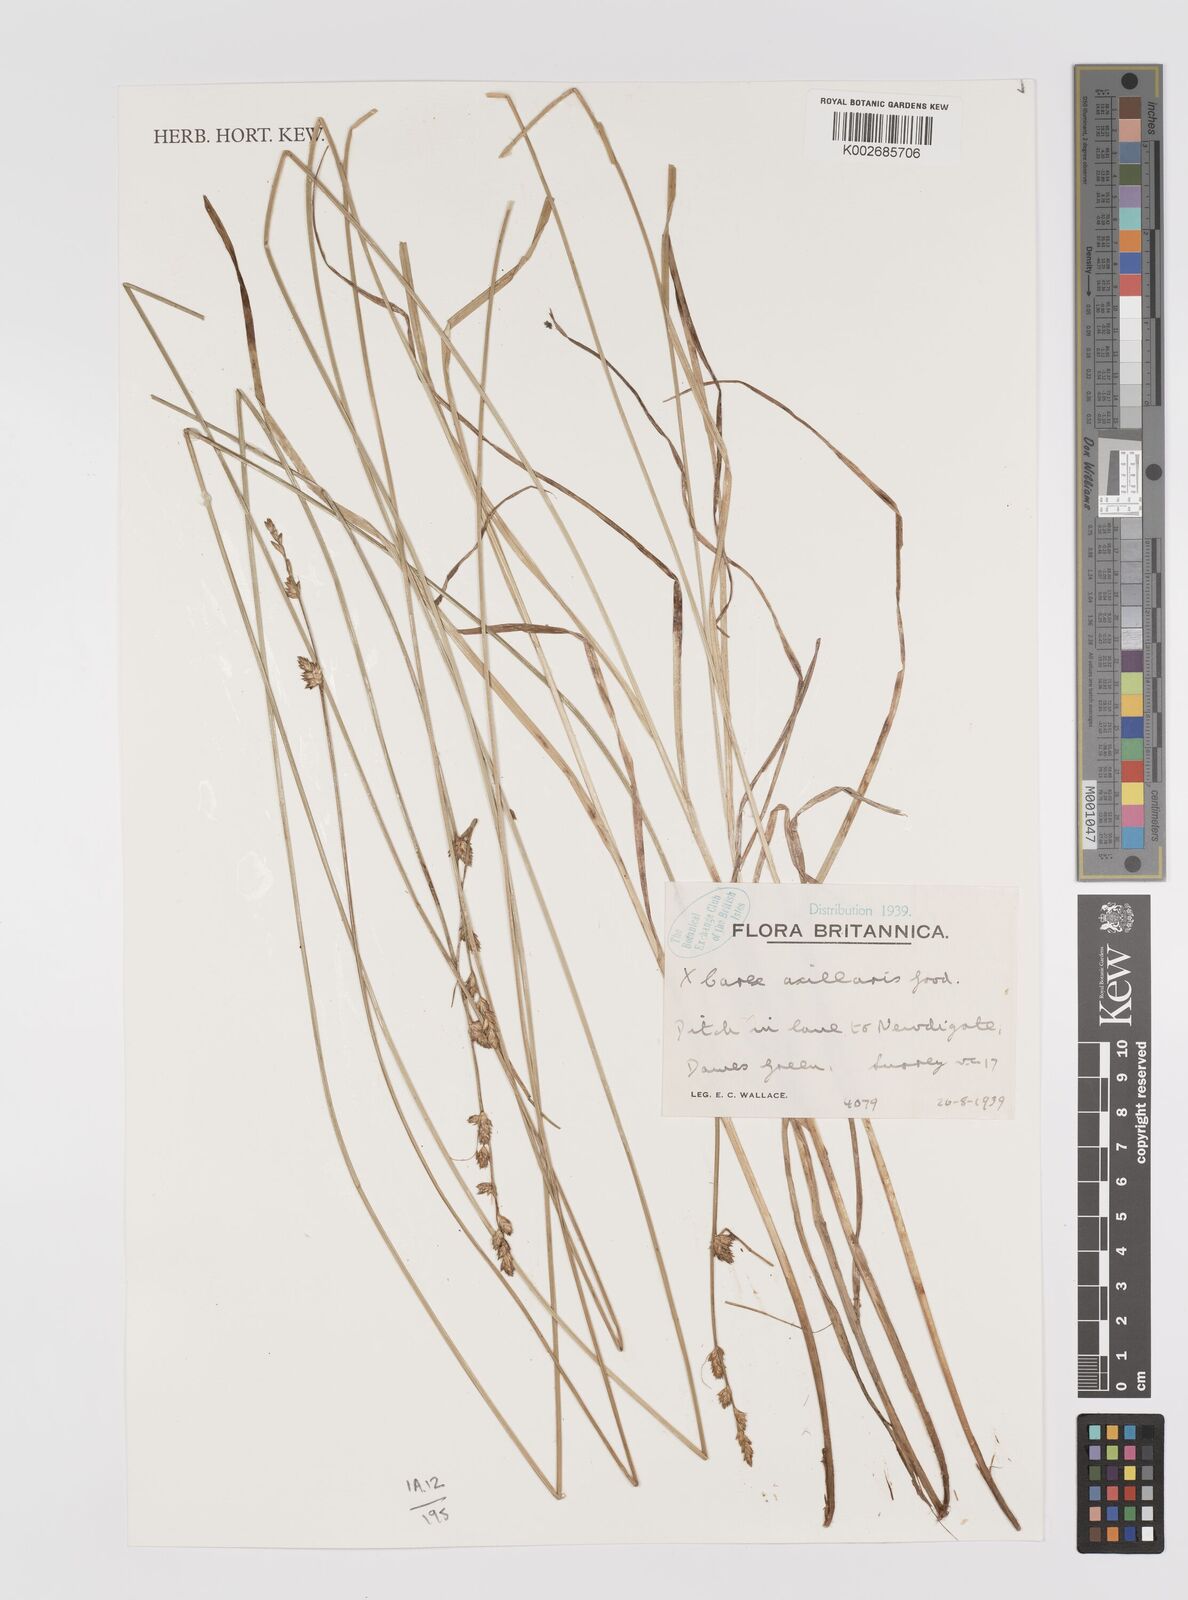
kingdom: Plantae
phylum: Tracheophyta
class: Liliopsida
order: Poales
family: Cyperaceae
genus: Carex
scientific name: Carex remota
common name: Remote sedge
